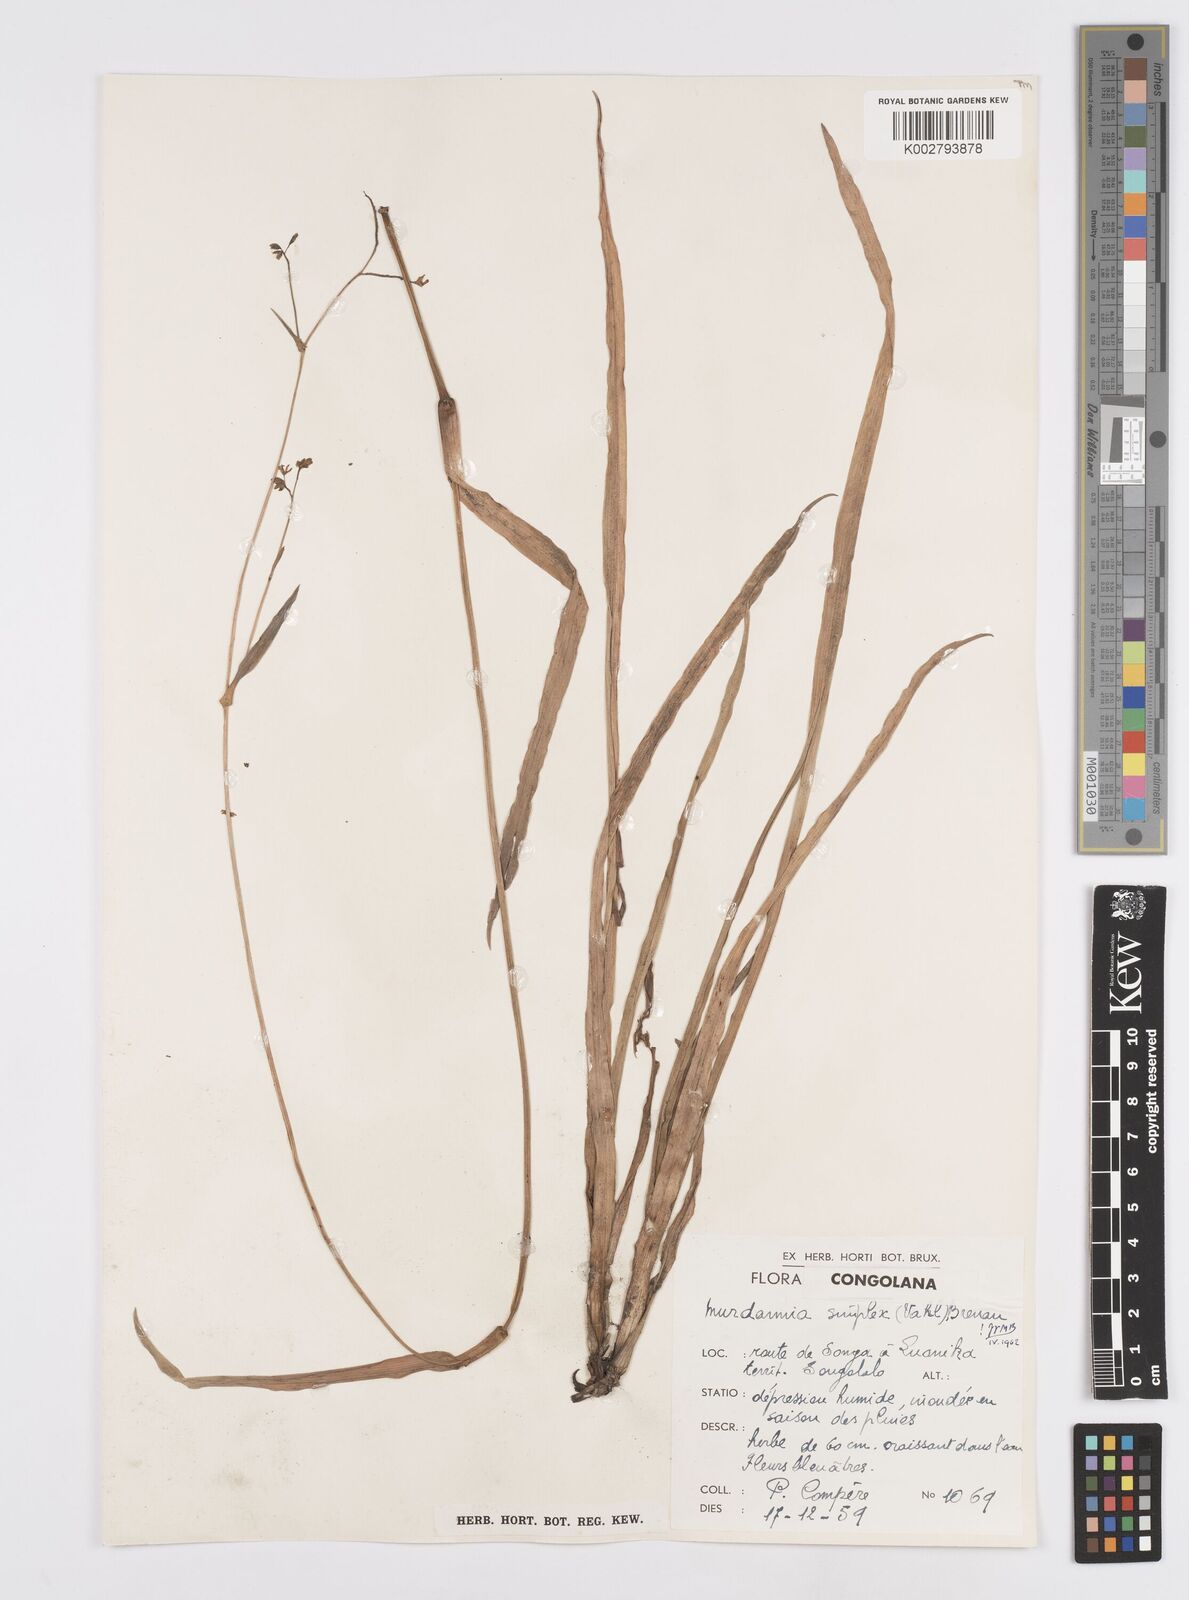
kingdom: Plantae
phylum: Tracheophyta
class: Liliopsida
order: Commelinales
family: Commelinaceae
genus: Murdannia
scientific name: Murdannia simplex
